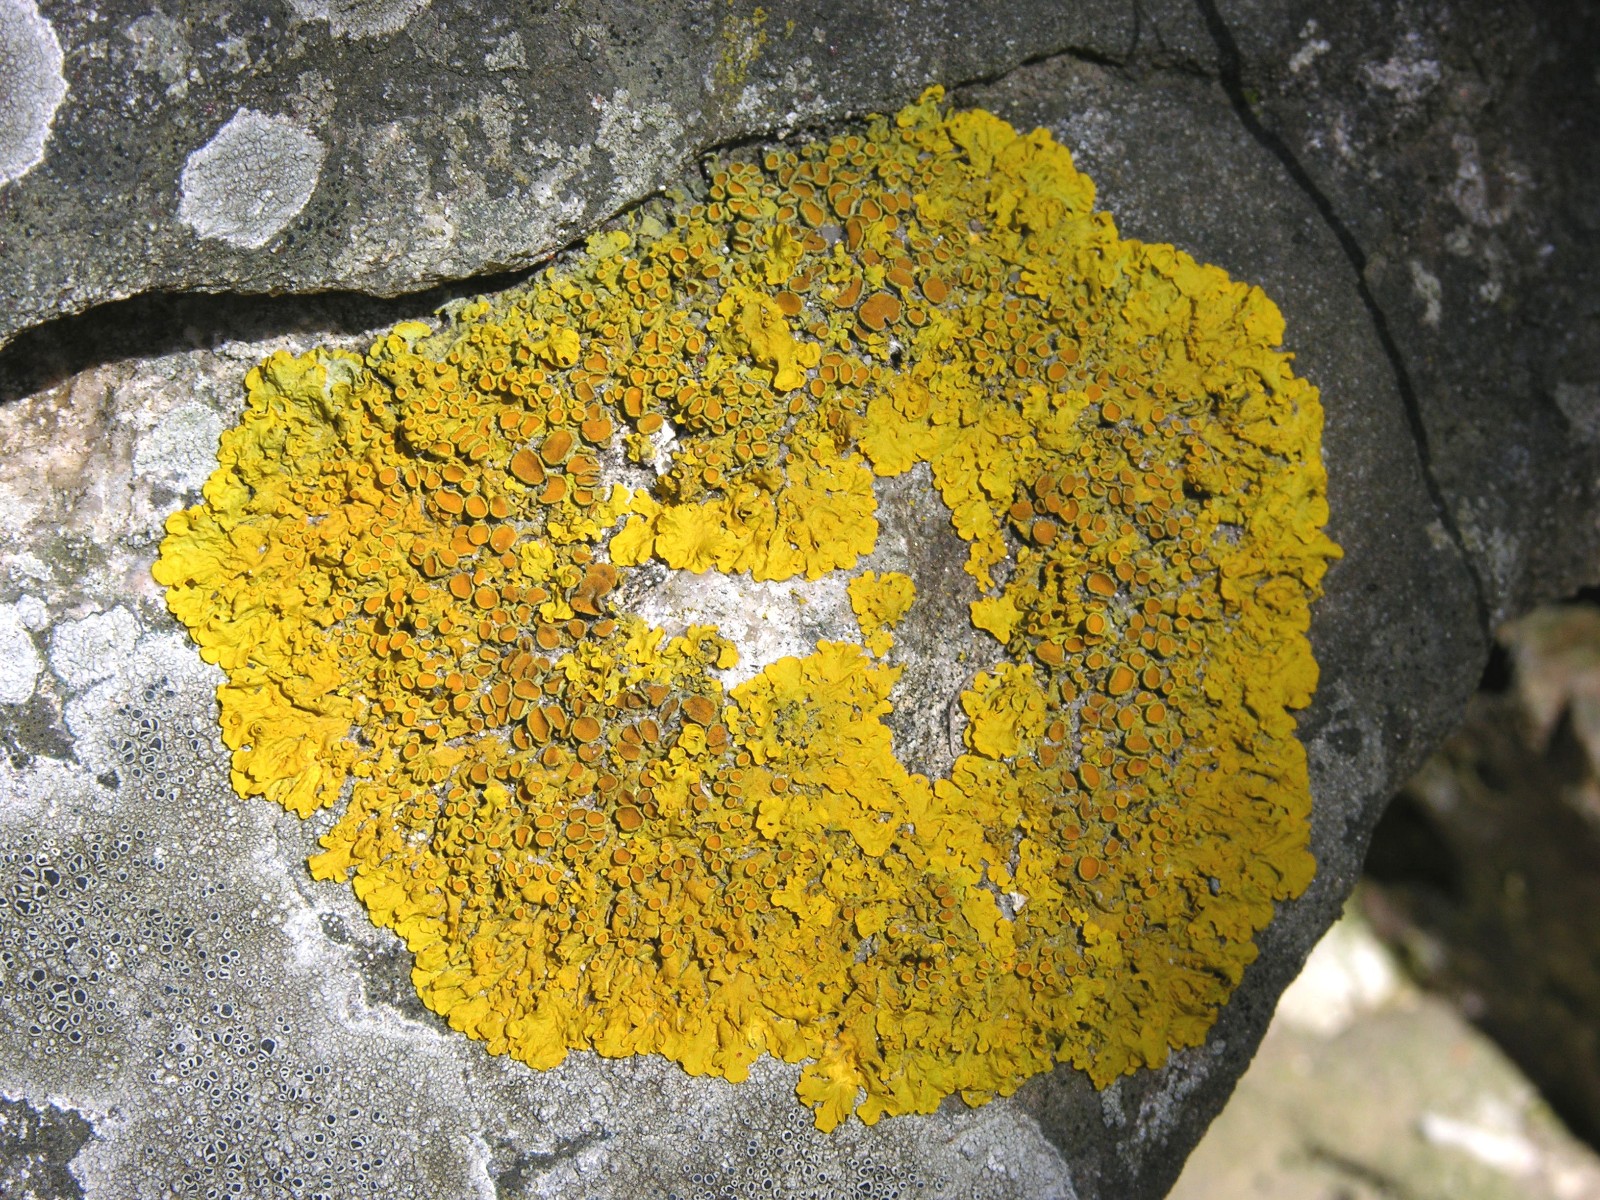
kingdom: Fungi
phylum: Ascomycota
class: Lecanoromycetes
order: Teloschistales
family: Teloschistaceae
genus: Xanthoria
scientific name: Xanthoria parietina
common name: almindelig væggelav
